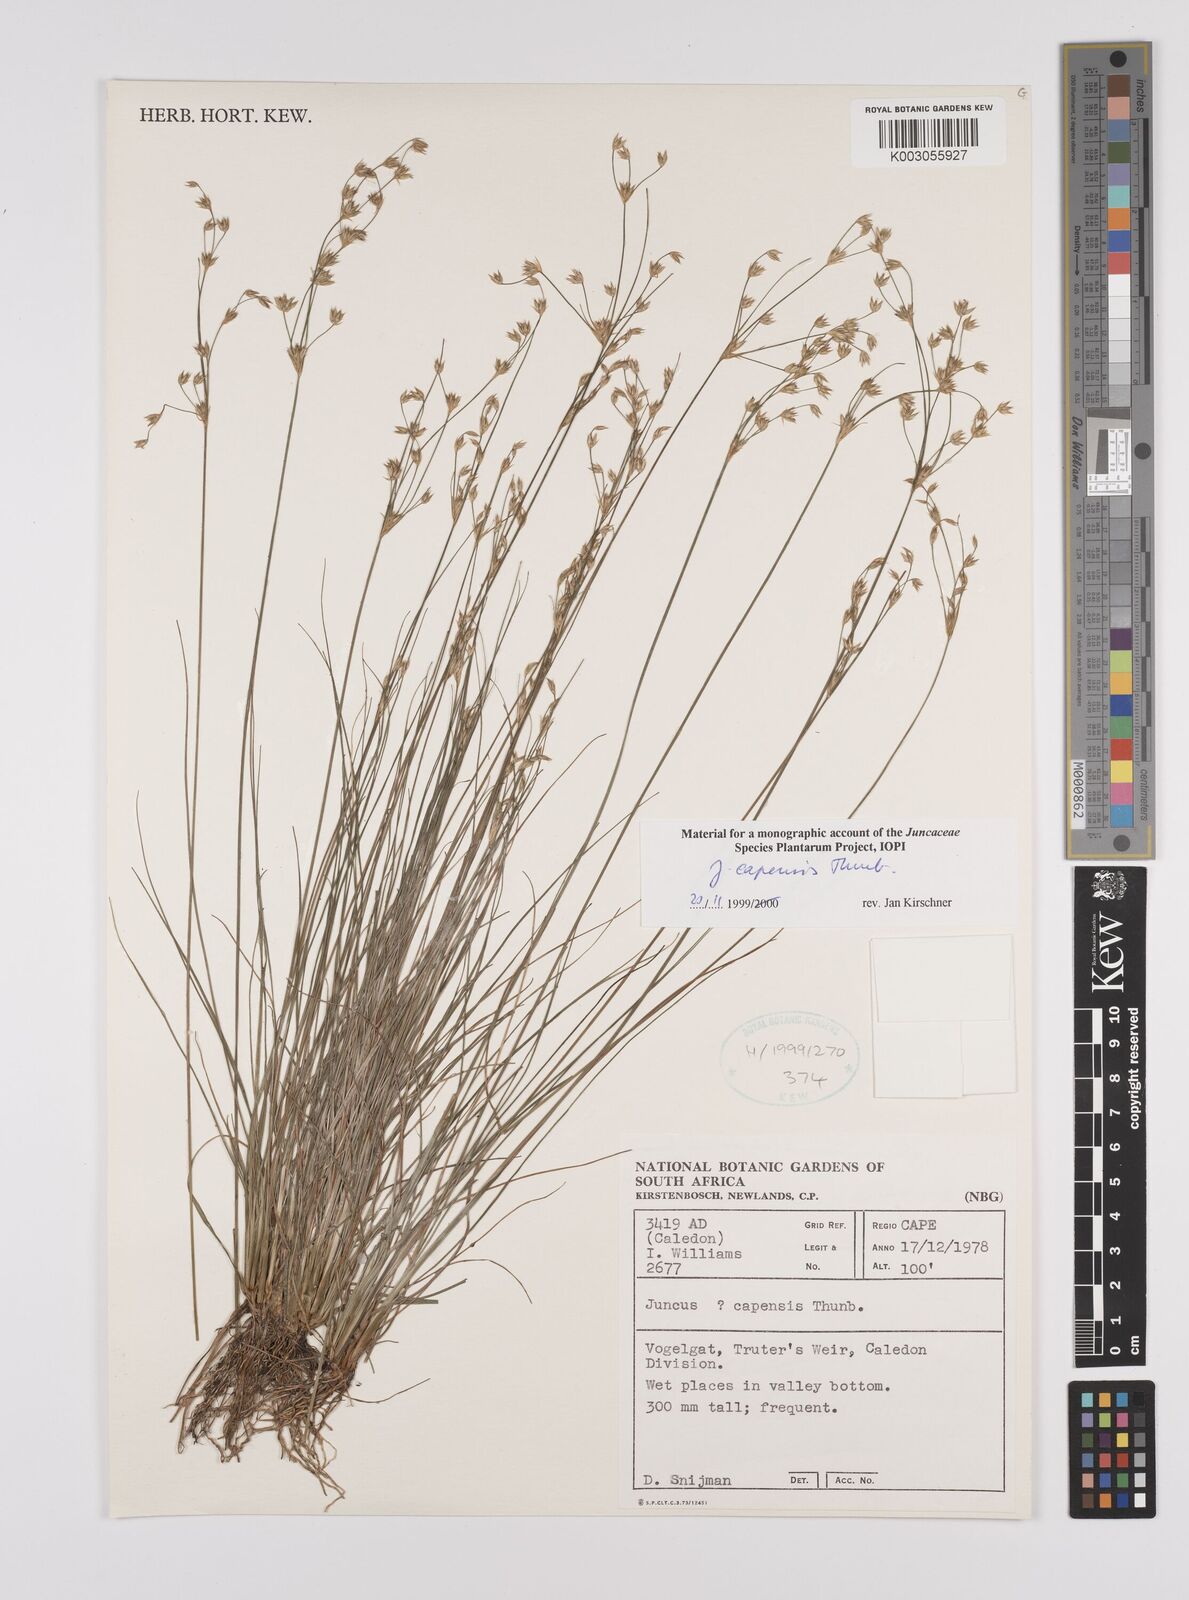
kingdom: Plantae
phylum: Tracheophyta
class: Liliopsida
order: Poales
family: Juncaceae
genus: Juncus
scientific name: Juncus capensis
